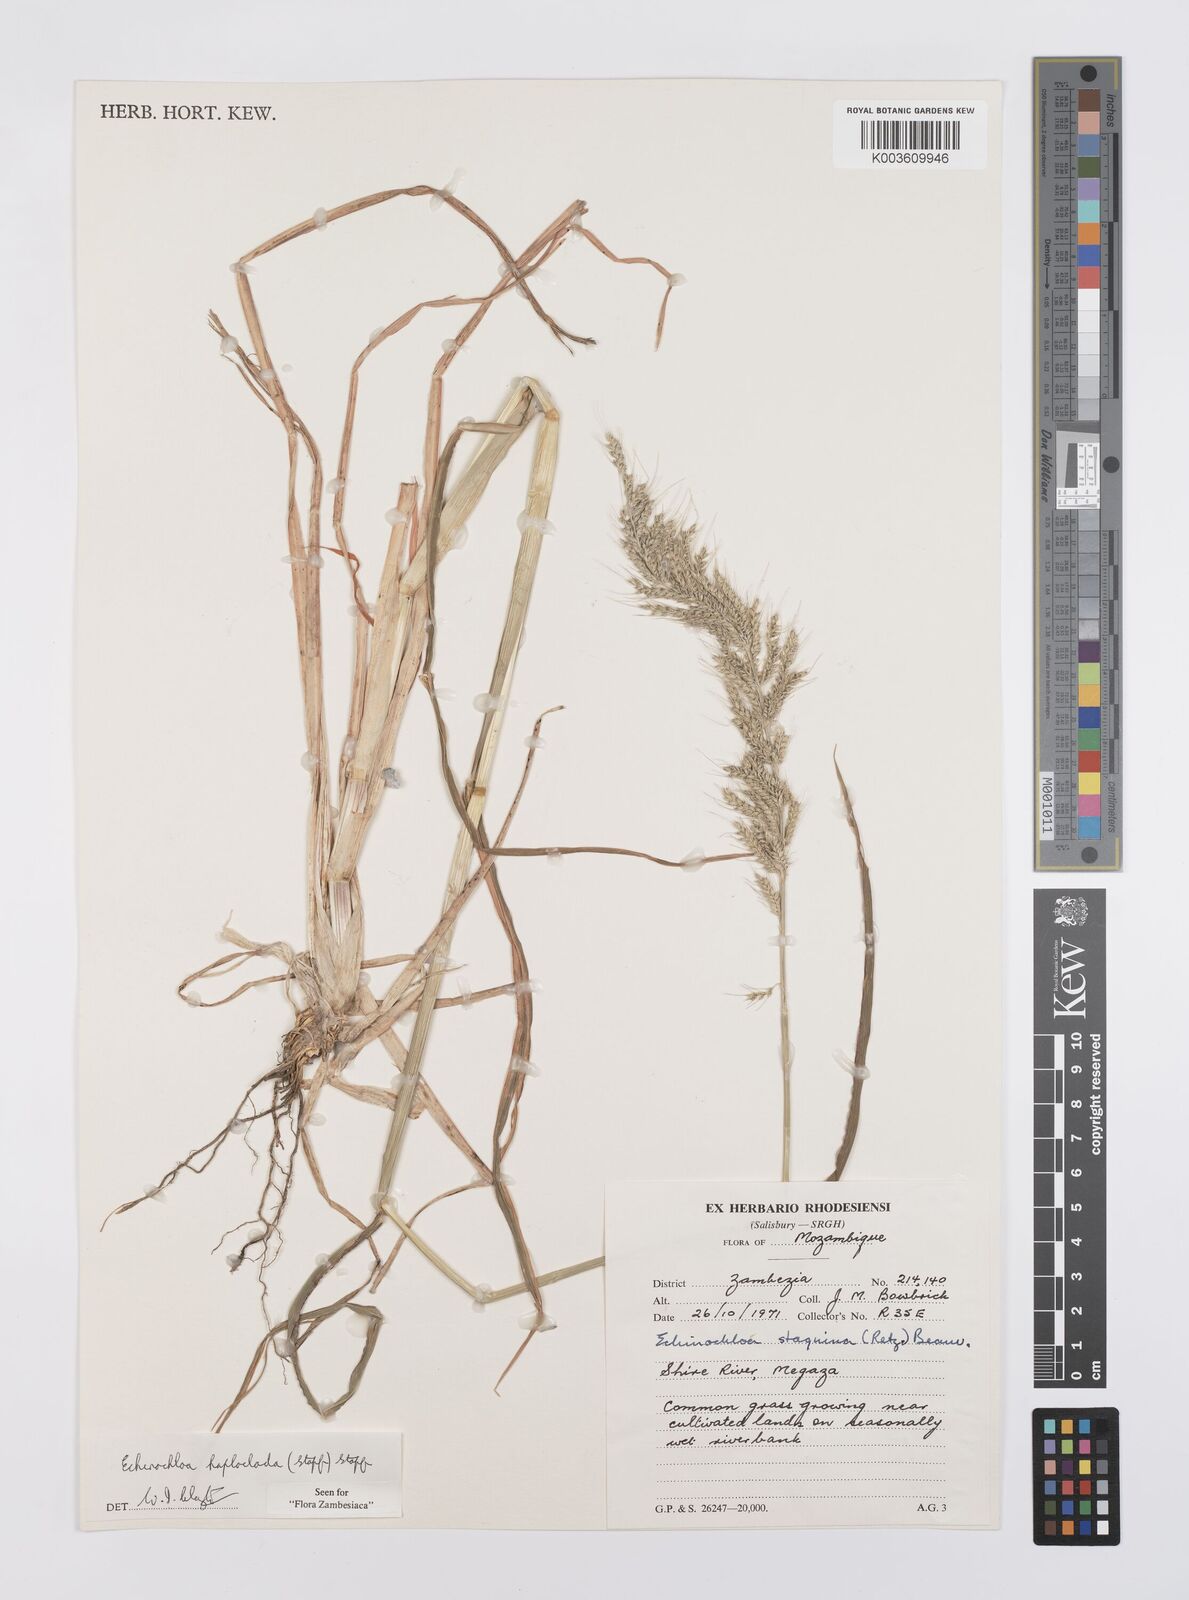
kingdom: Plantae
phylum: Tracheophyta
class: Liliopsida
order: Poales
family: Poaceae
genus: Echinochloa
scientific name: Echinochloa haploclada
